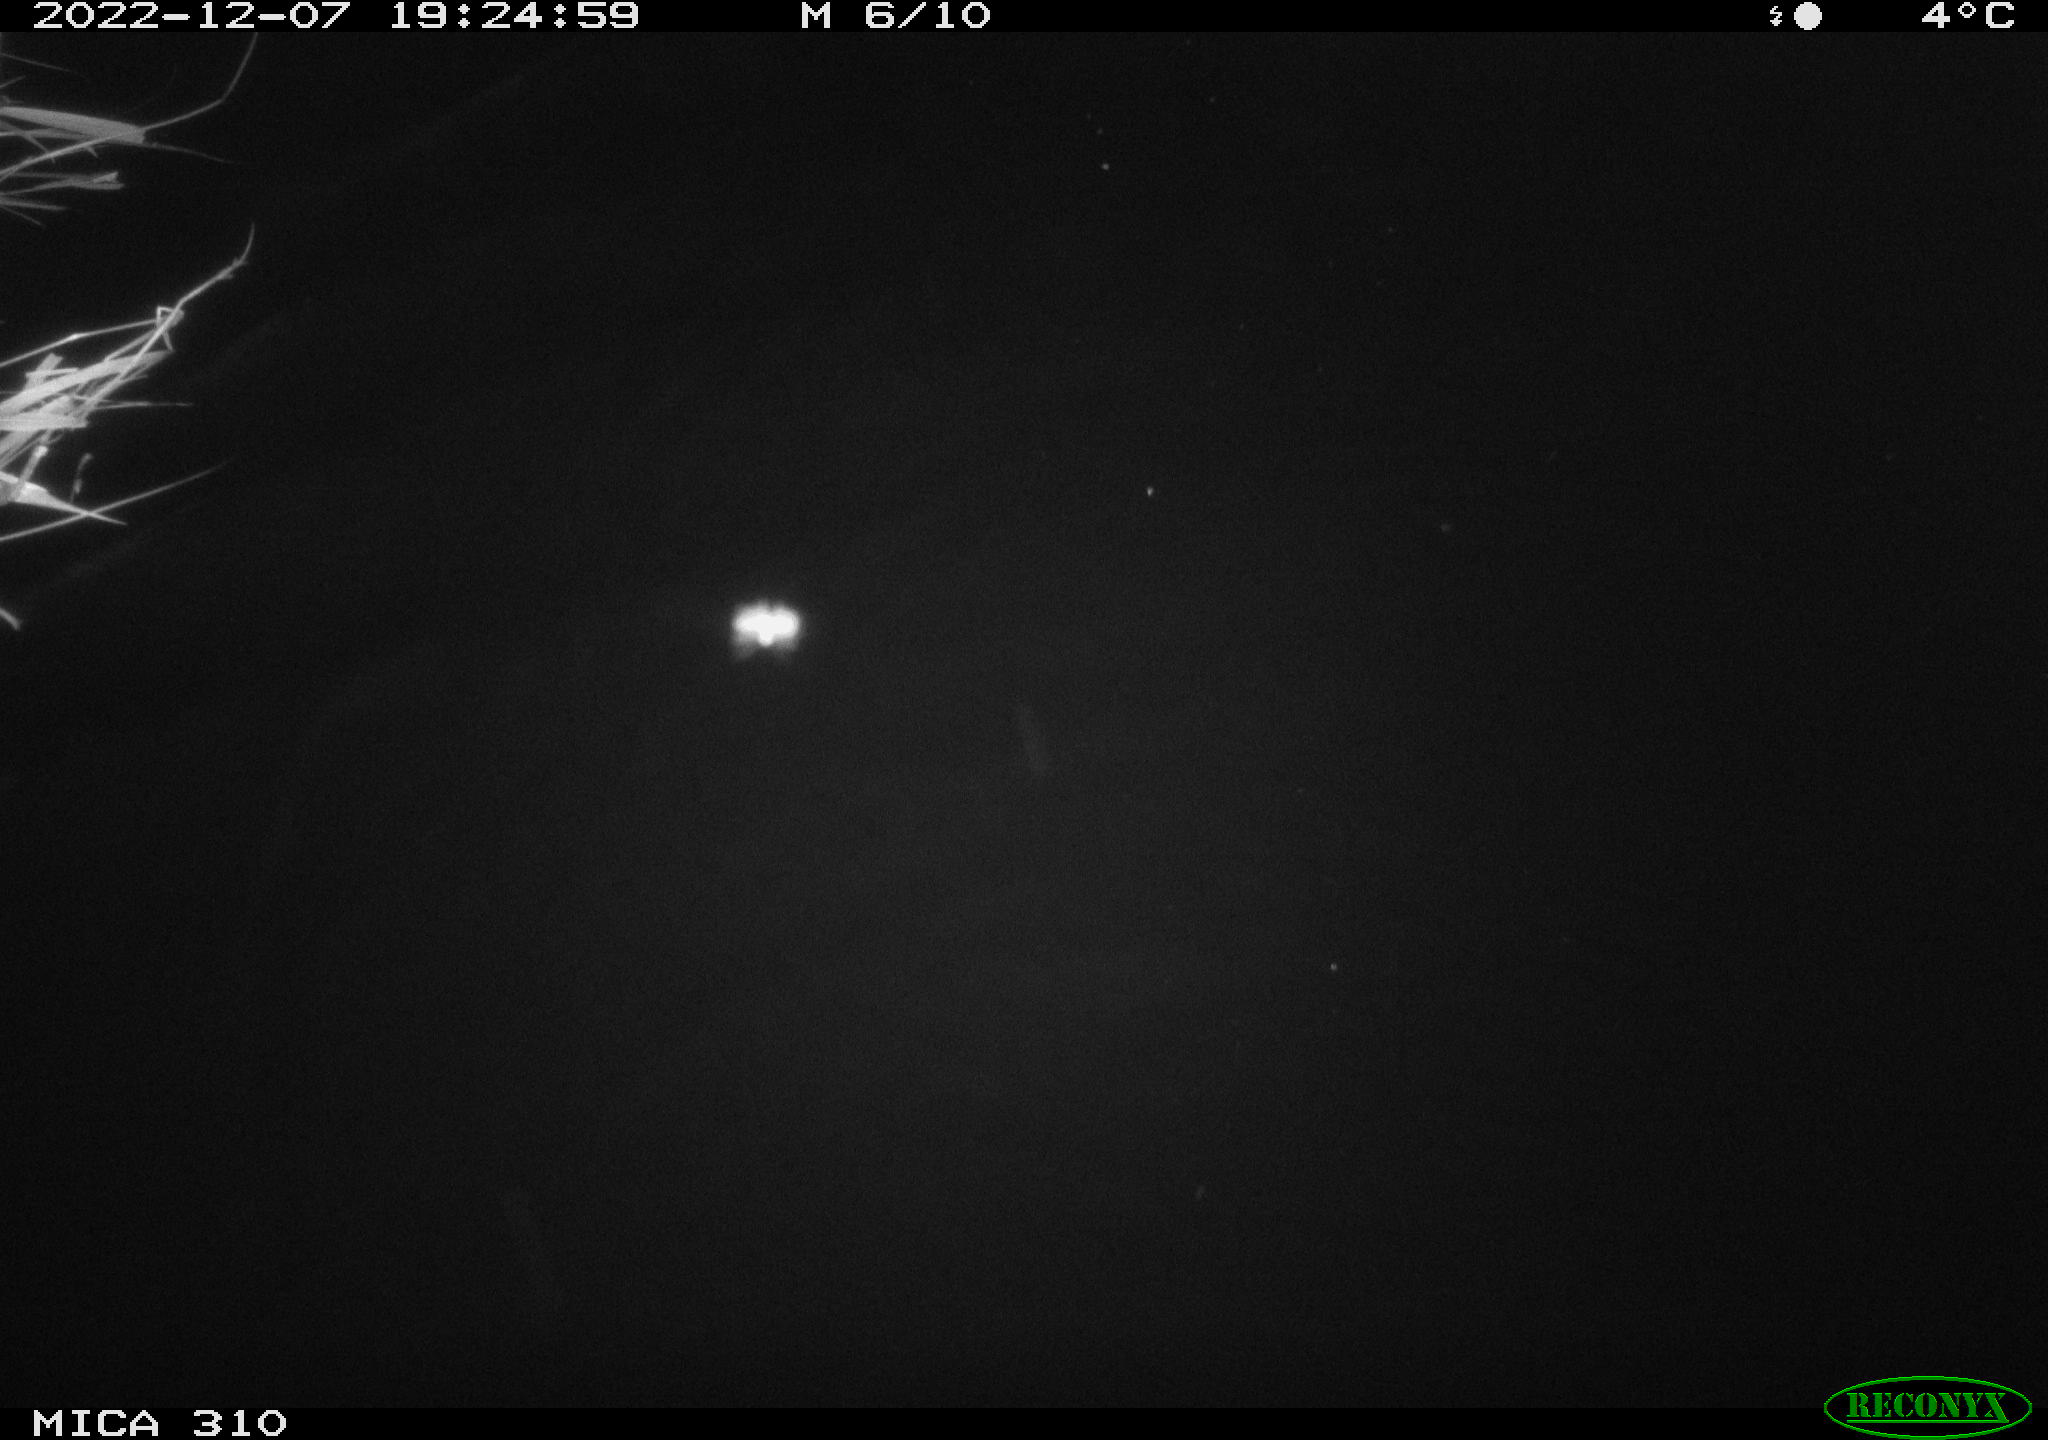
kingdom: Animalia
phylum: Chordata
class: Mammalia
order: Rodentia
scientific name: Rodentia
